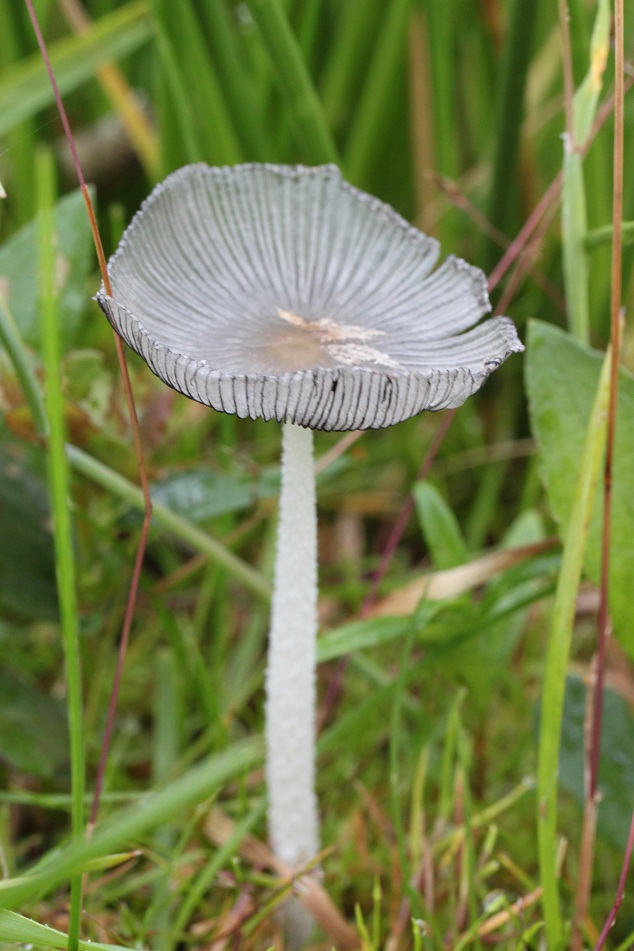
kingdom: Fungi
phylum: Basidiomycota
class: Agaricomycetes
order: Agaricales
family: Psathyrellaceae
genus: Coprinopsis
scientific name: Coprinopsis lagopus
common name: dunstokket blækhat
